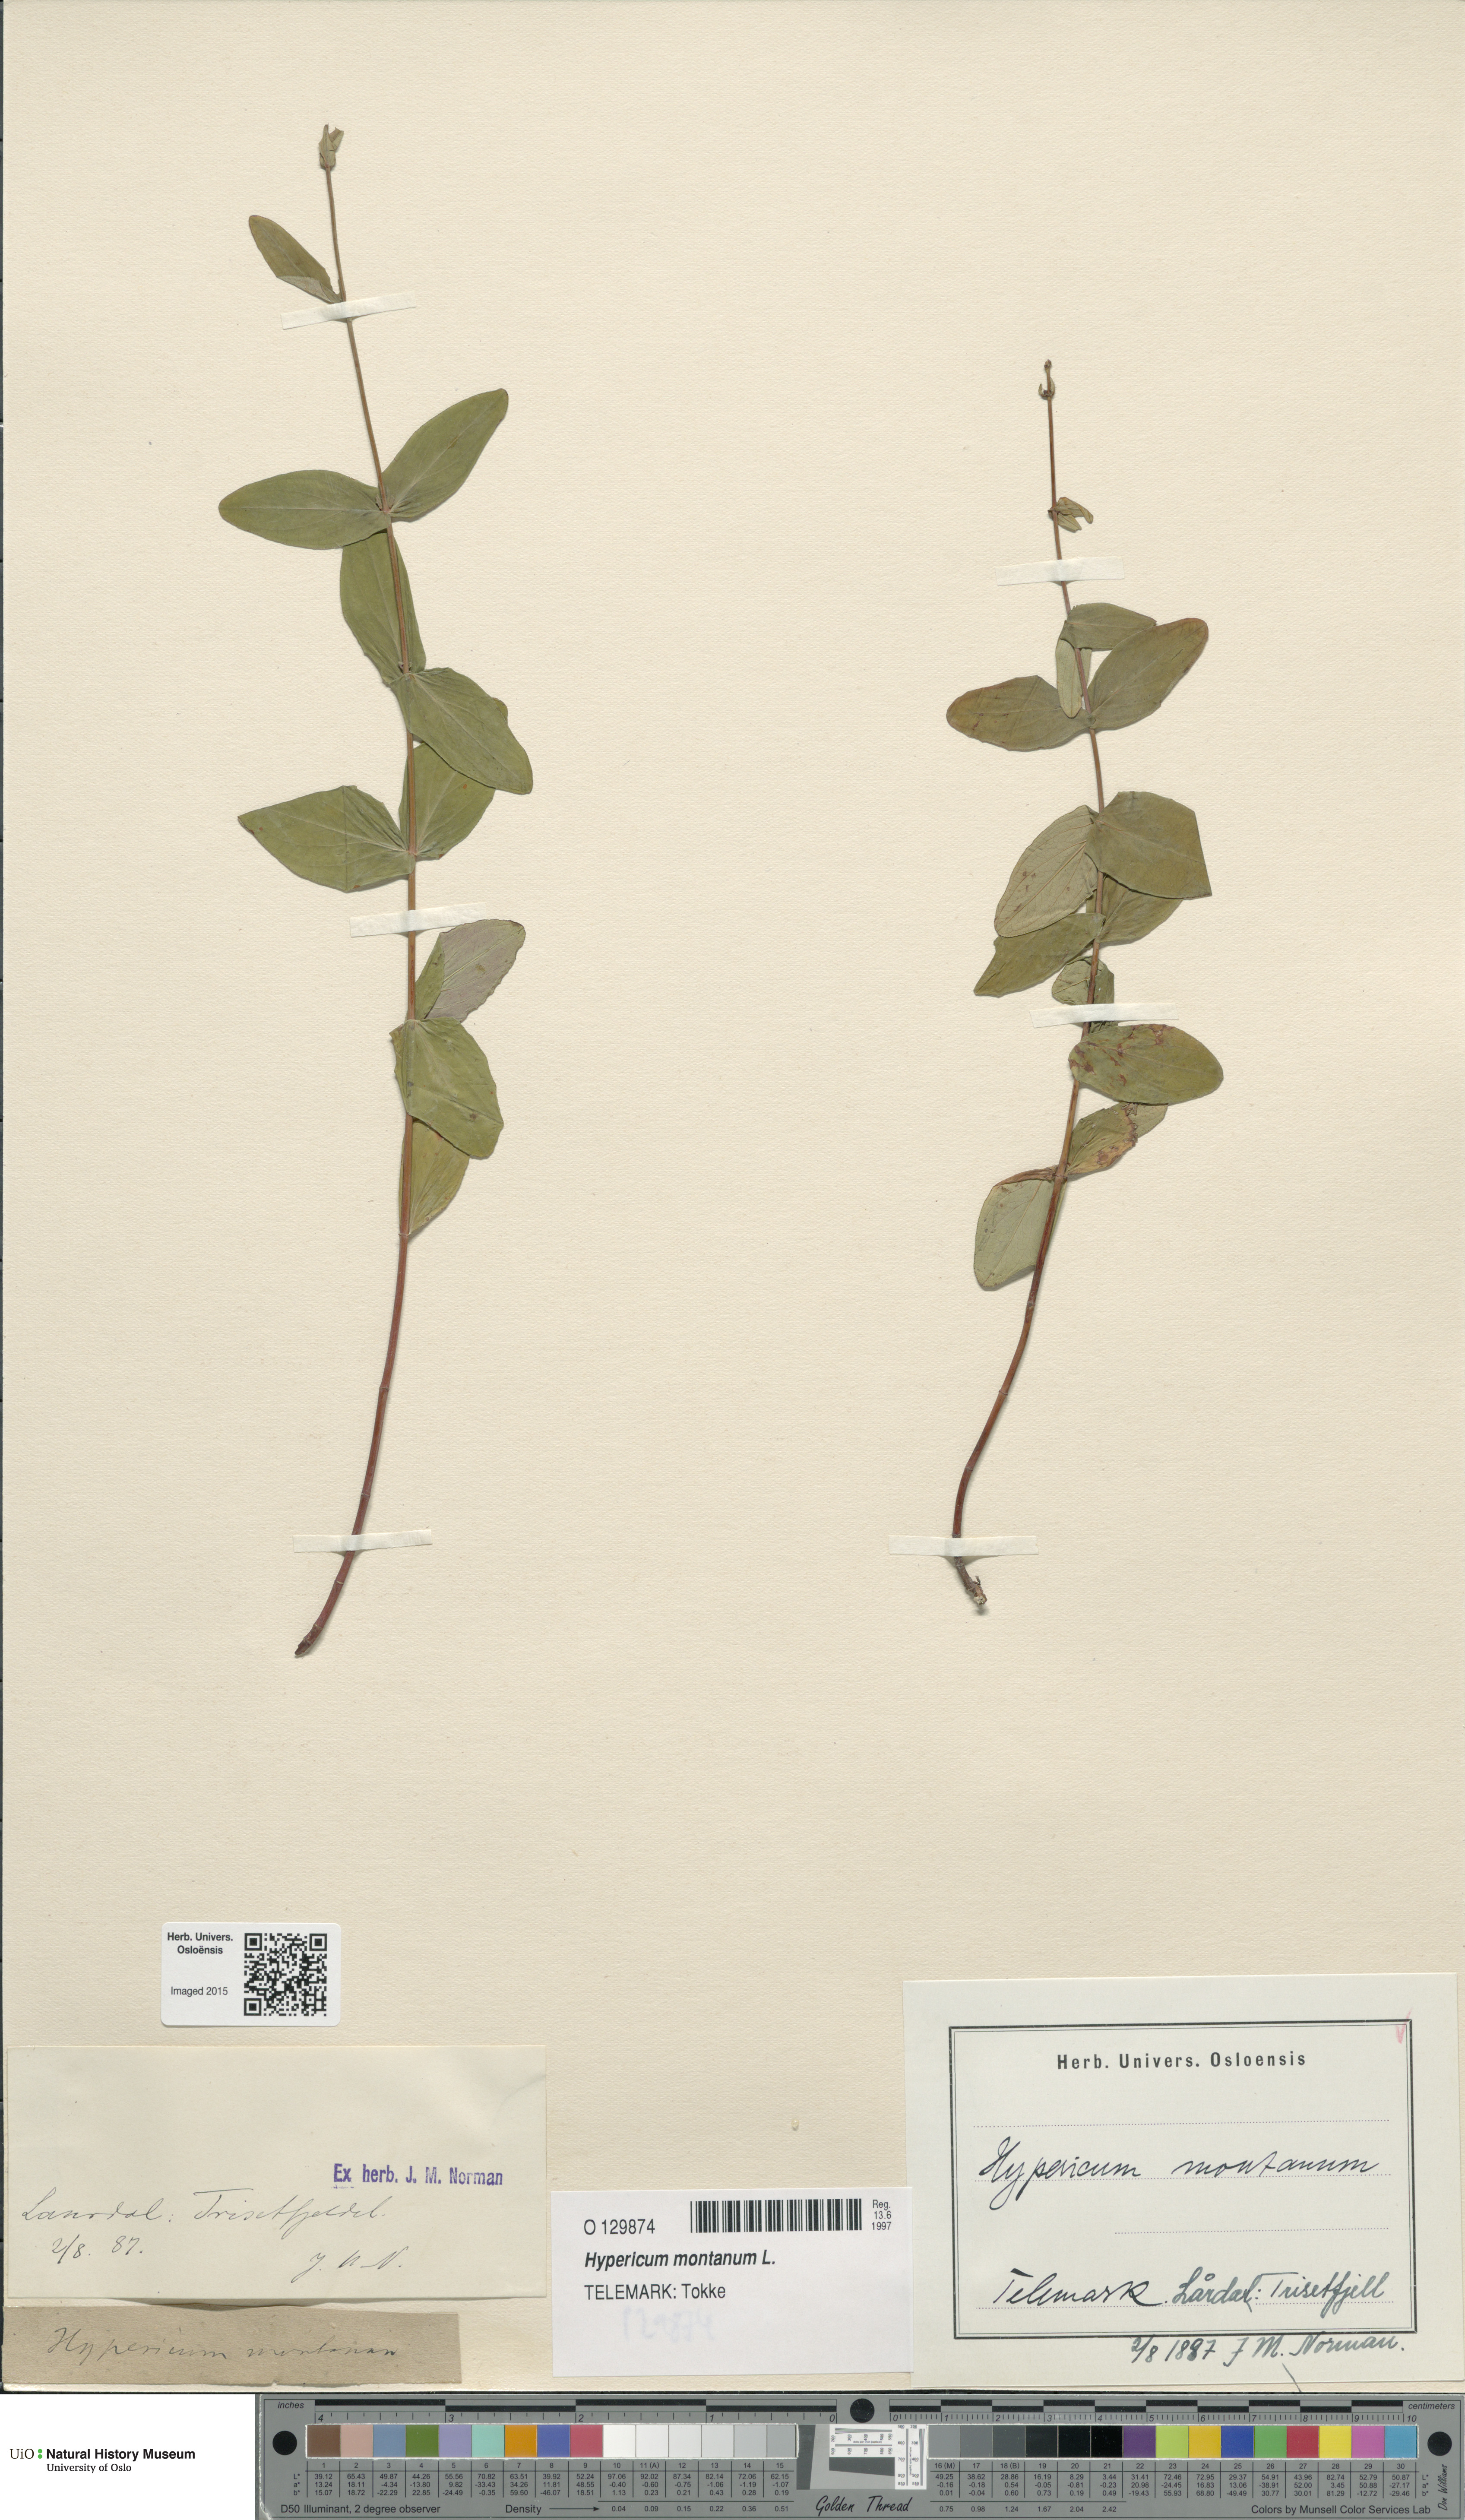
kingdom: Plantae
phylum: Tracheophyta
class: Magnoliopsida
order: Malpighiales
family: Hypericaceae
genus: Hypericum
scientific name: Hypericum montanum
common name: Pale st. john's-wort
